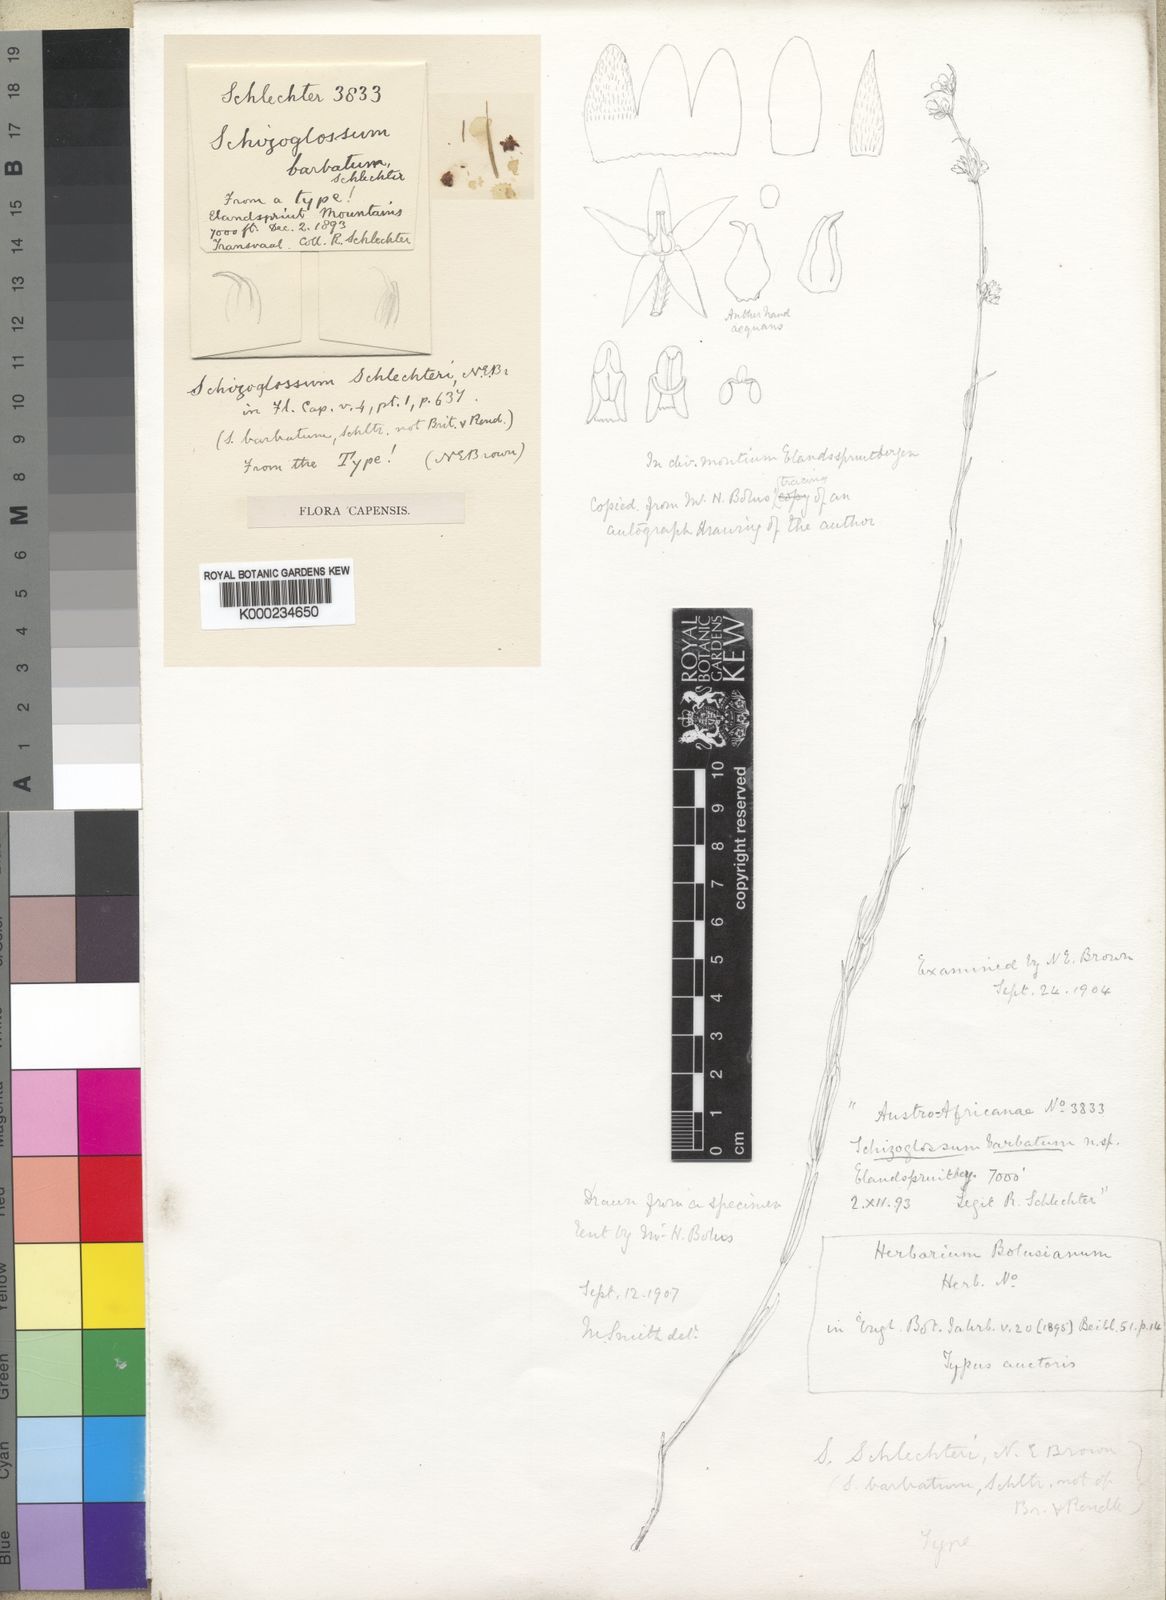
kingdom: Plantae
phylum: Tracheophyta
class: Magnoliopsida
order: Gentianales
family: Apocynaceae
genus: Aspidoglossum
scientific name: Aspidoglossum glabrescens
